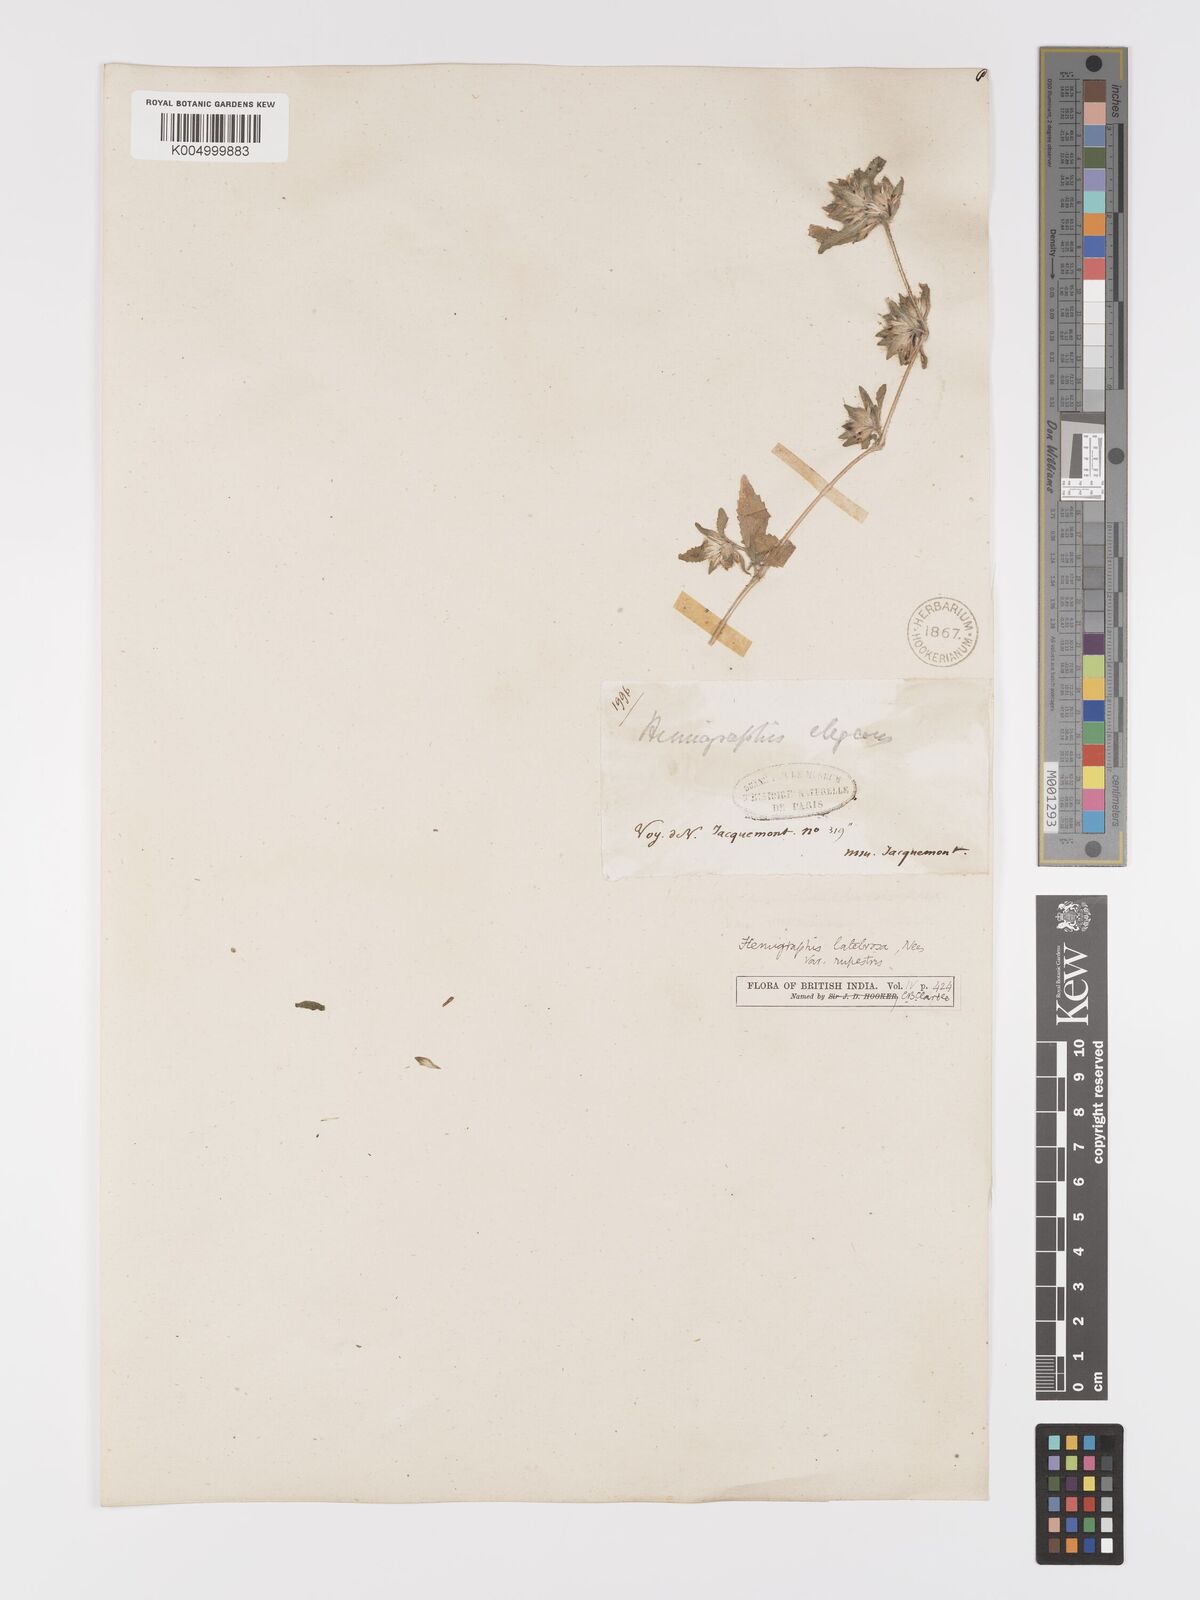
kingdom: Plantae
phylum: Tracheophyta
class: Magnoliopsida
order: Lamiales
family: Acanthaceae
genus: Strobilanthes
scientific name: Strobilanthes pavala
